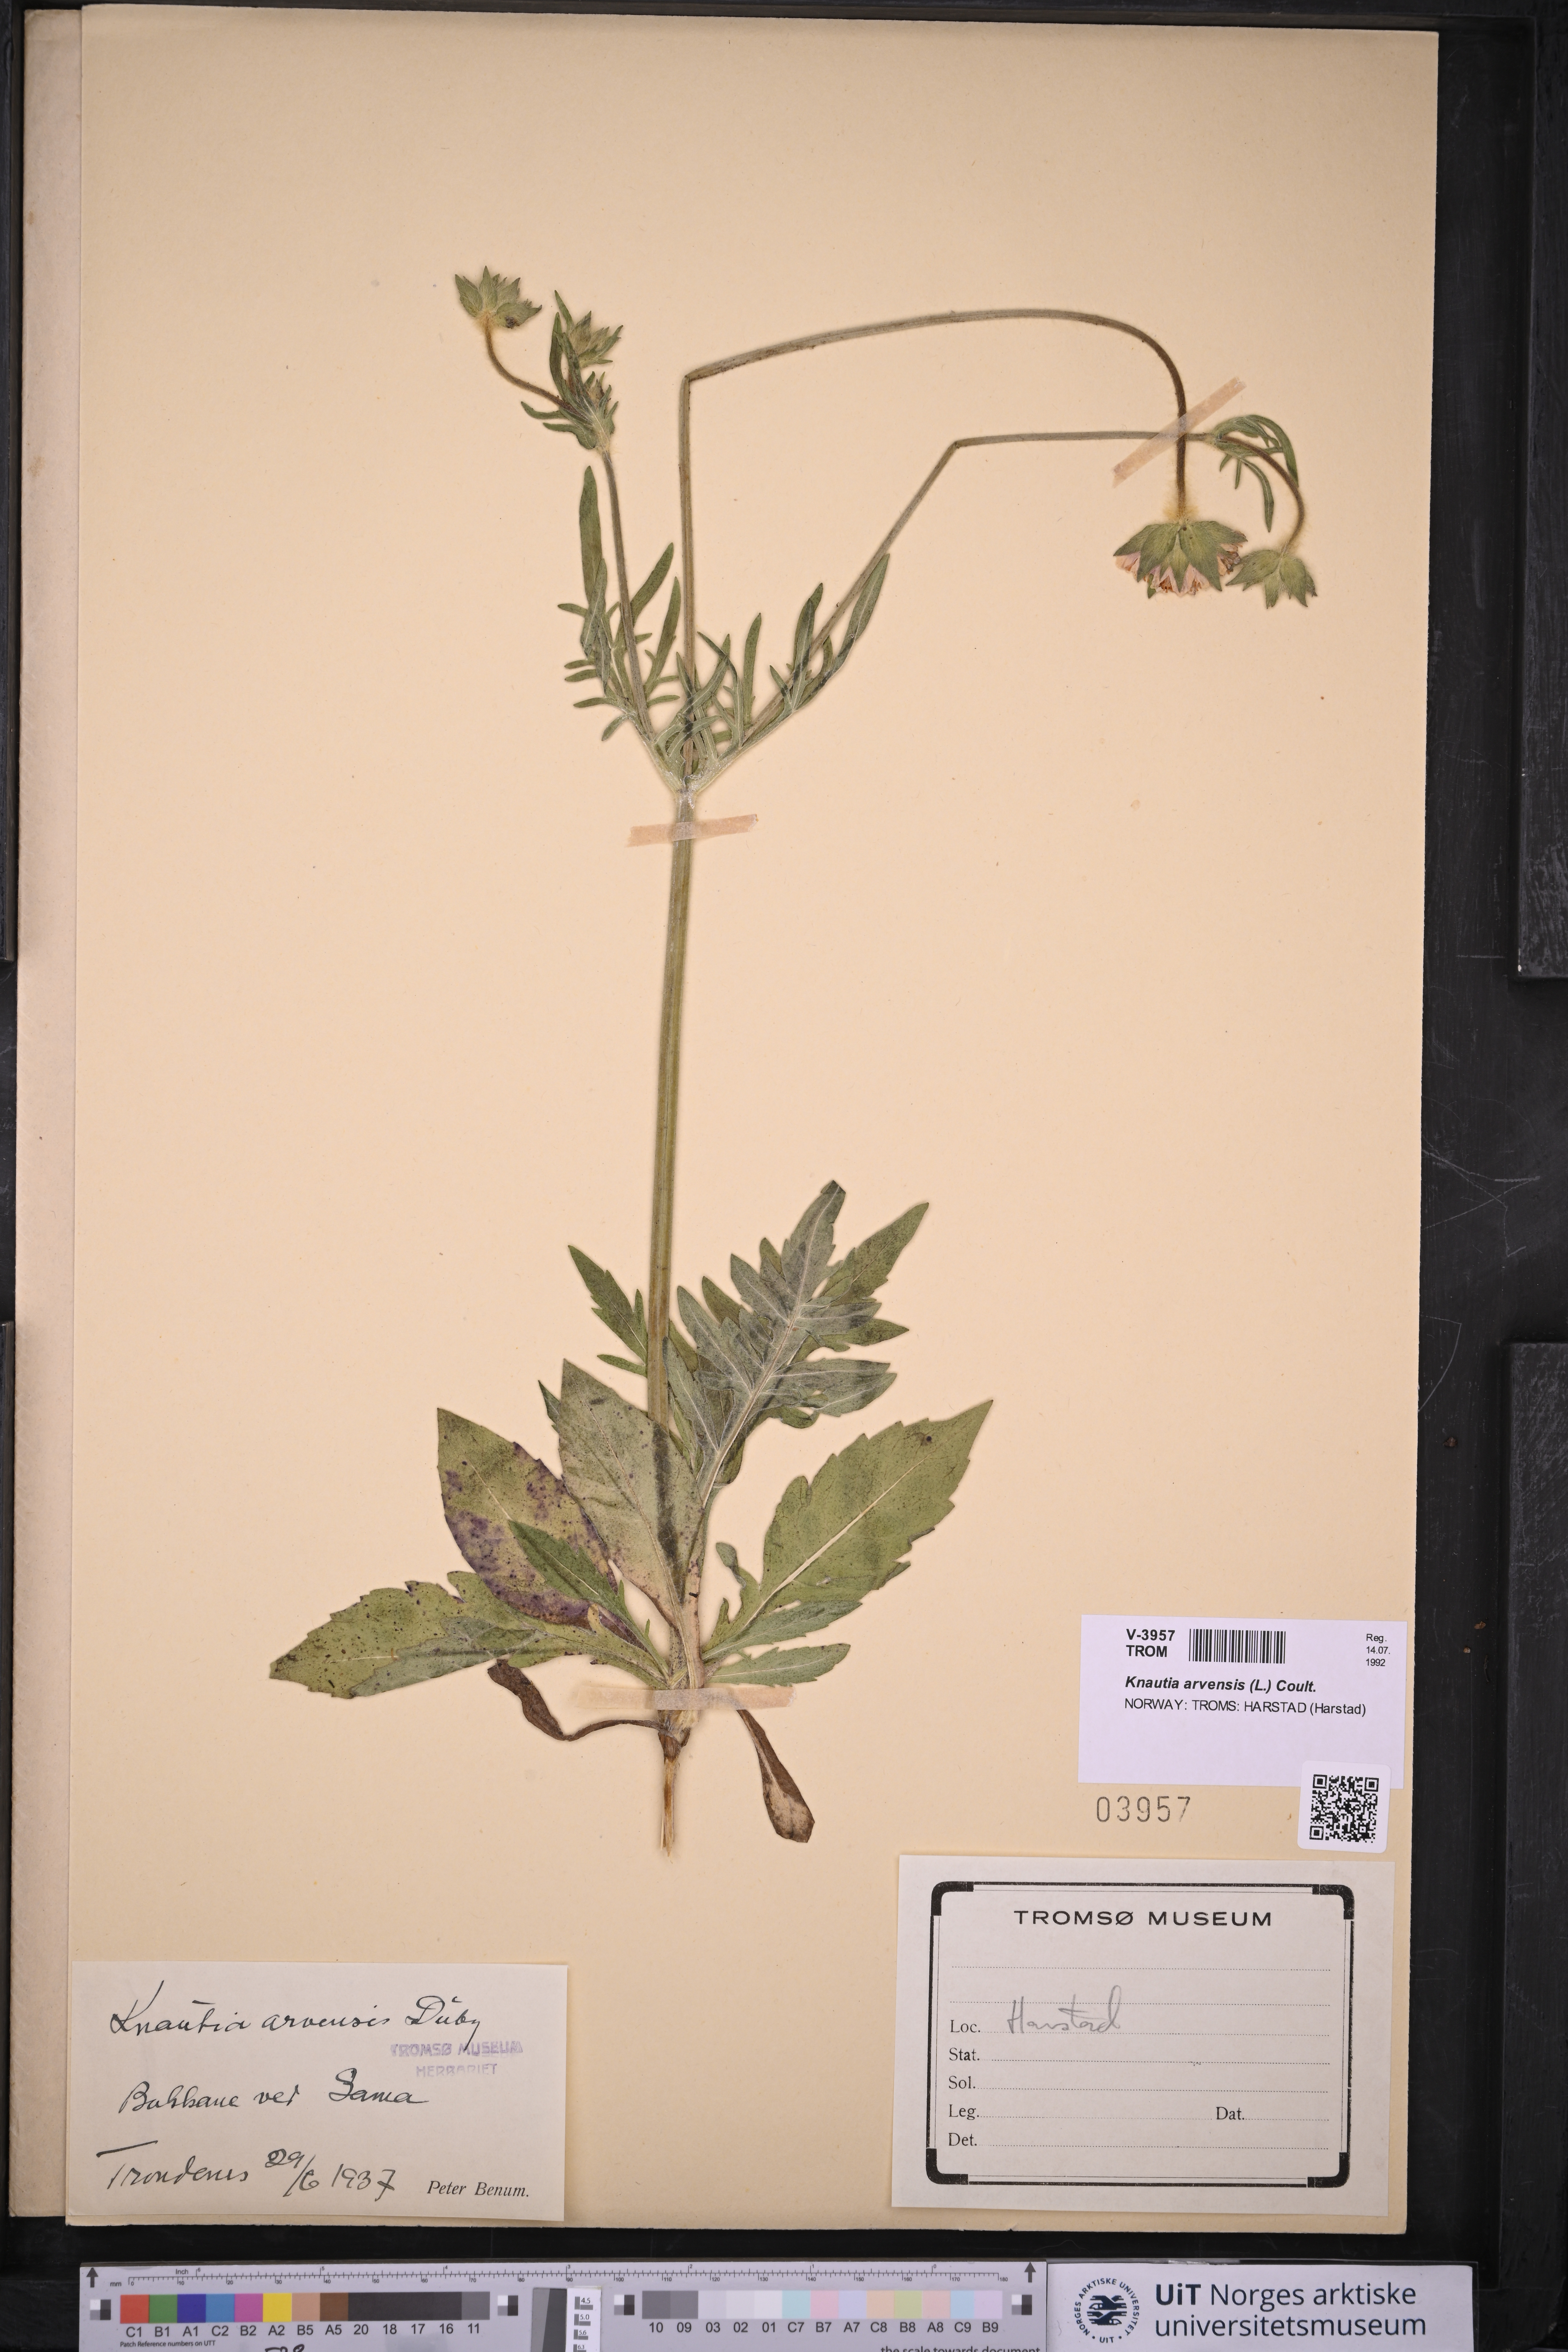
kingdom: Plantae
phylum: Tracheophyta
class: Magnoliopsida
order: Dipsacales
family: Caprifoliaceae
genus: Knautia
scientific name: Knautia arvensis
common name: Field scabiosa
